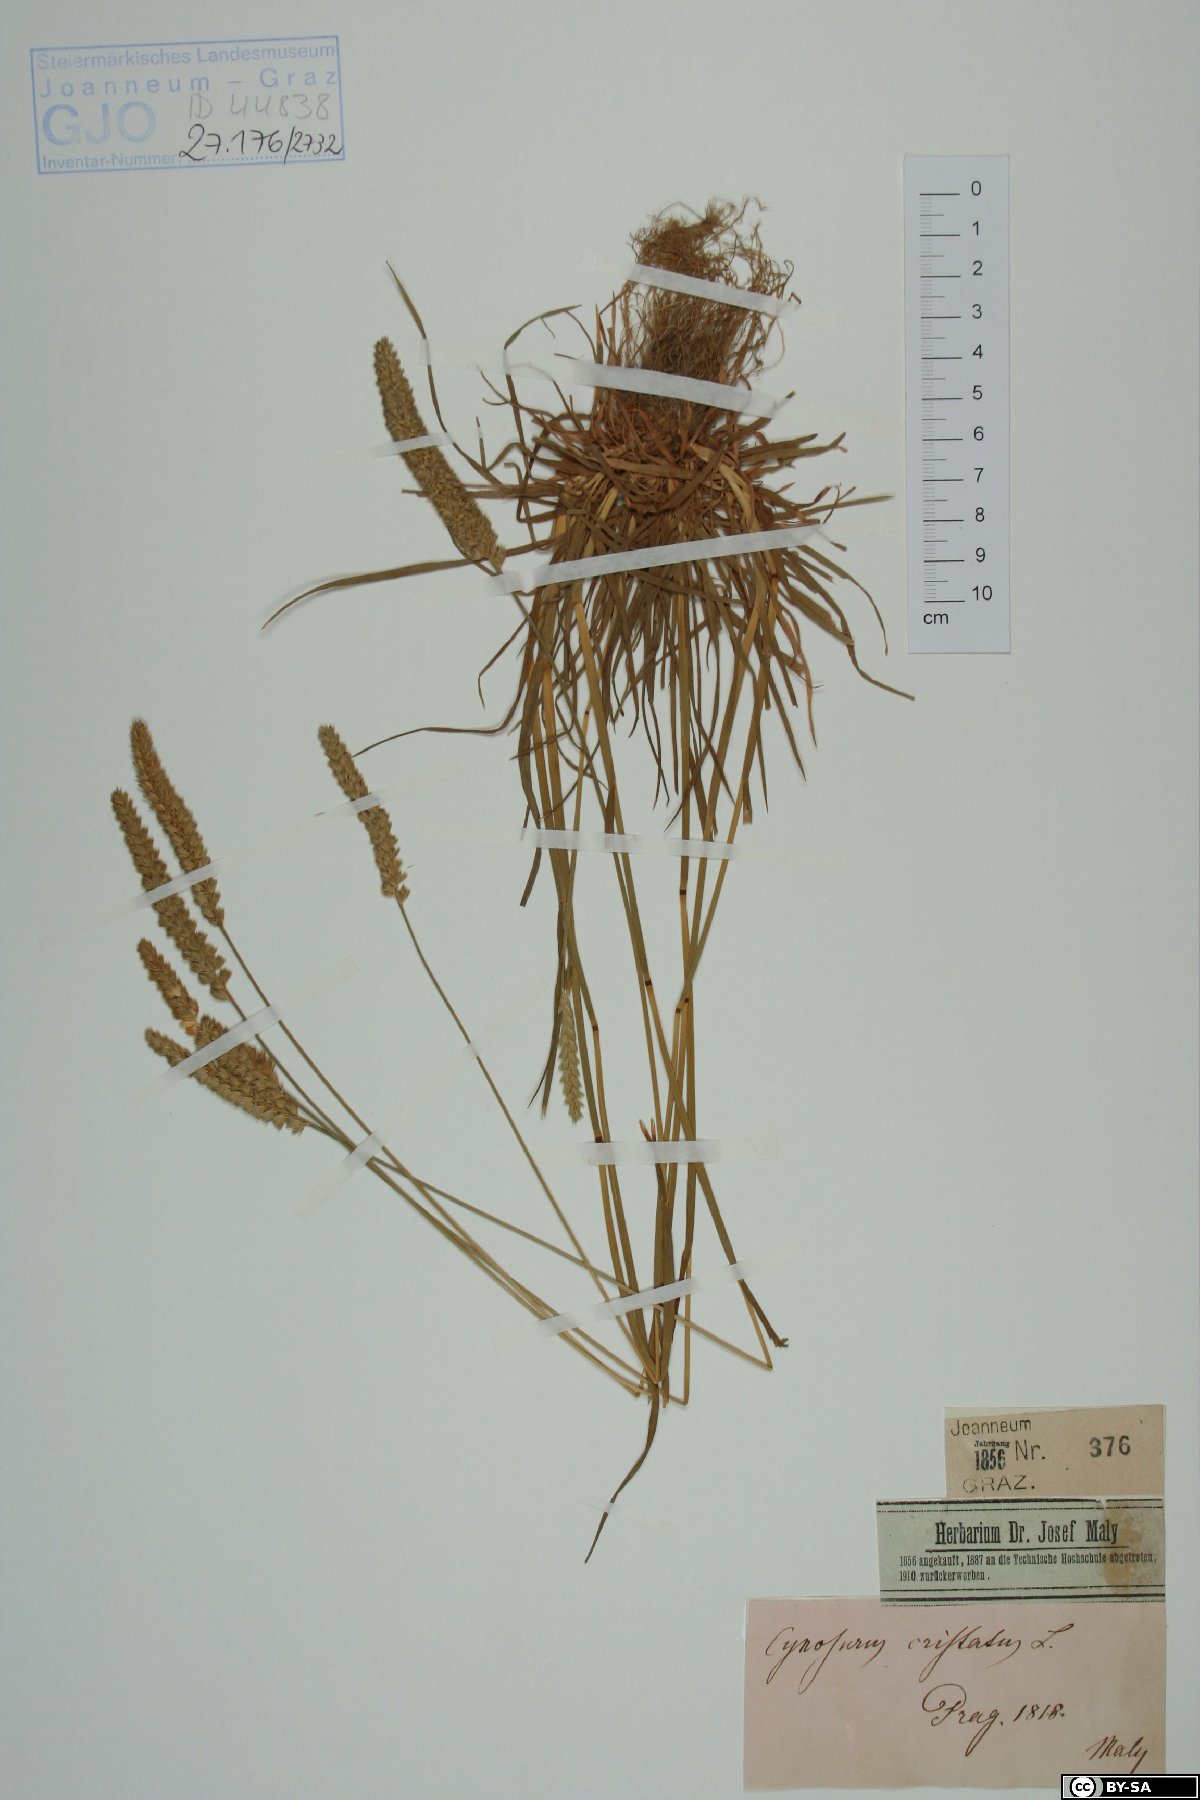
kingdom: Plantae
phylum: Tracheophyta
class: Liliopsida
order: Poales
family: Poaceae
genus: Cynosurus
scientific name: Cynosurus cristatus
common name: Crested dog's-tail
